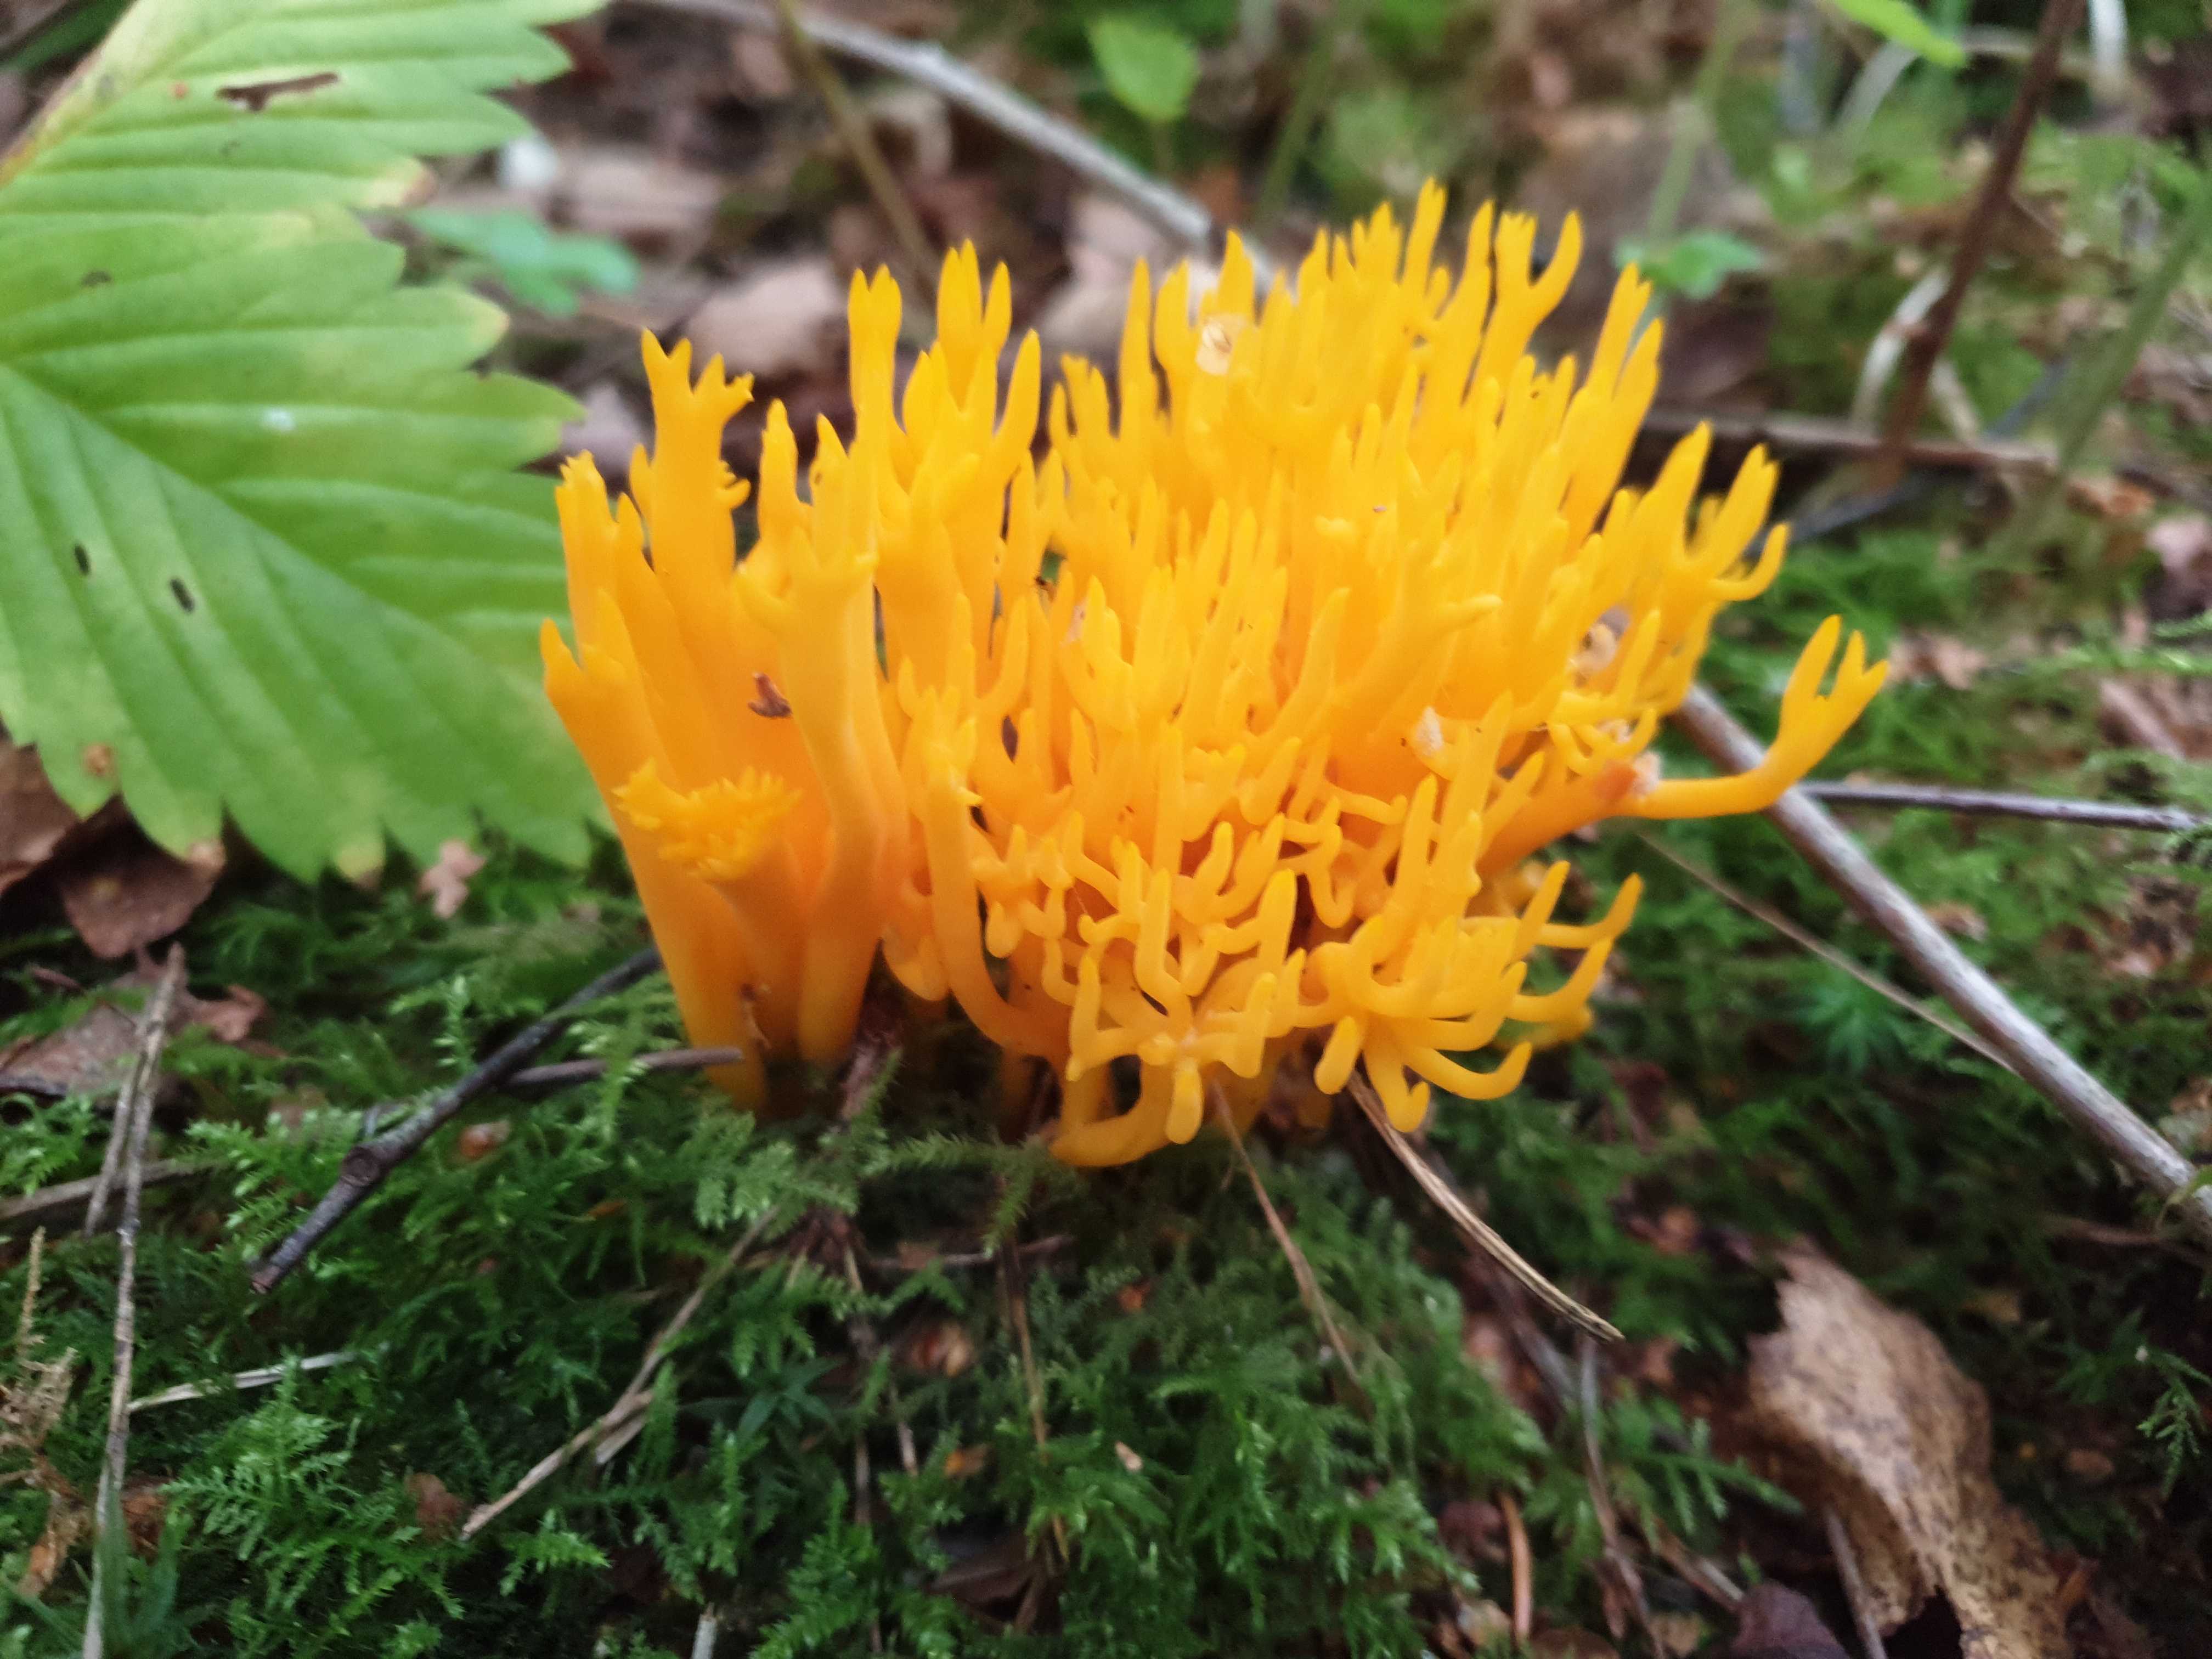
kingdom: Fungi
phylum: Basidiomycota
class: Dacrymycetes
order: Dacrymycetales
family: Dacrymycetaceae
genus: Calocera
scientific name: Calocera viscosa
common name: almindelig guldgaffel
